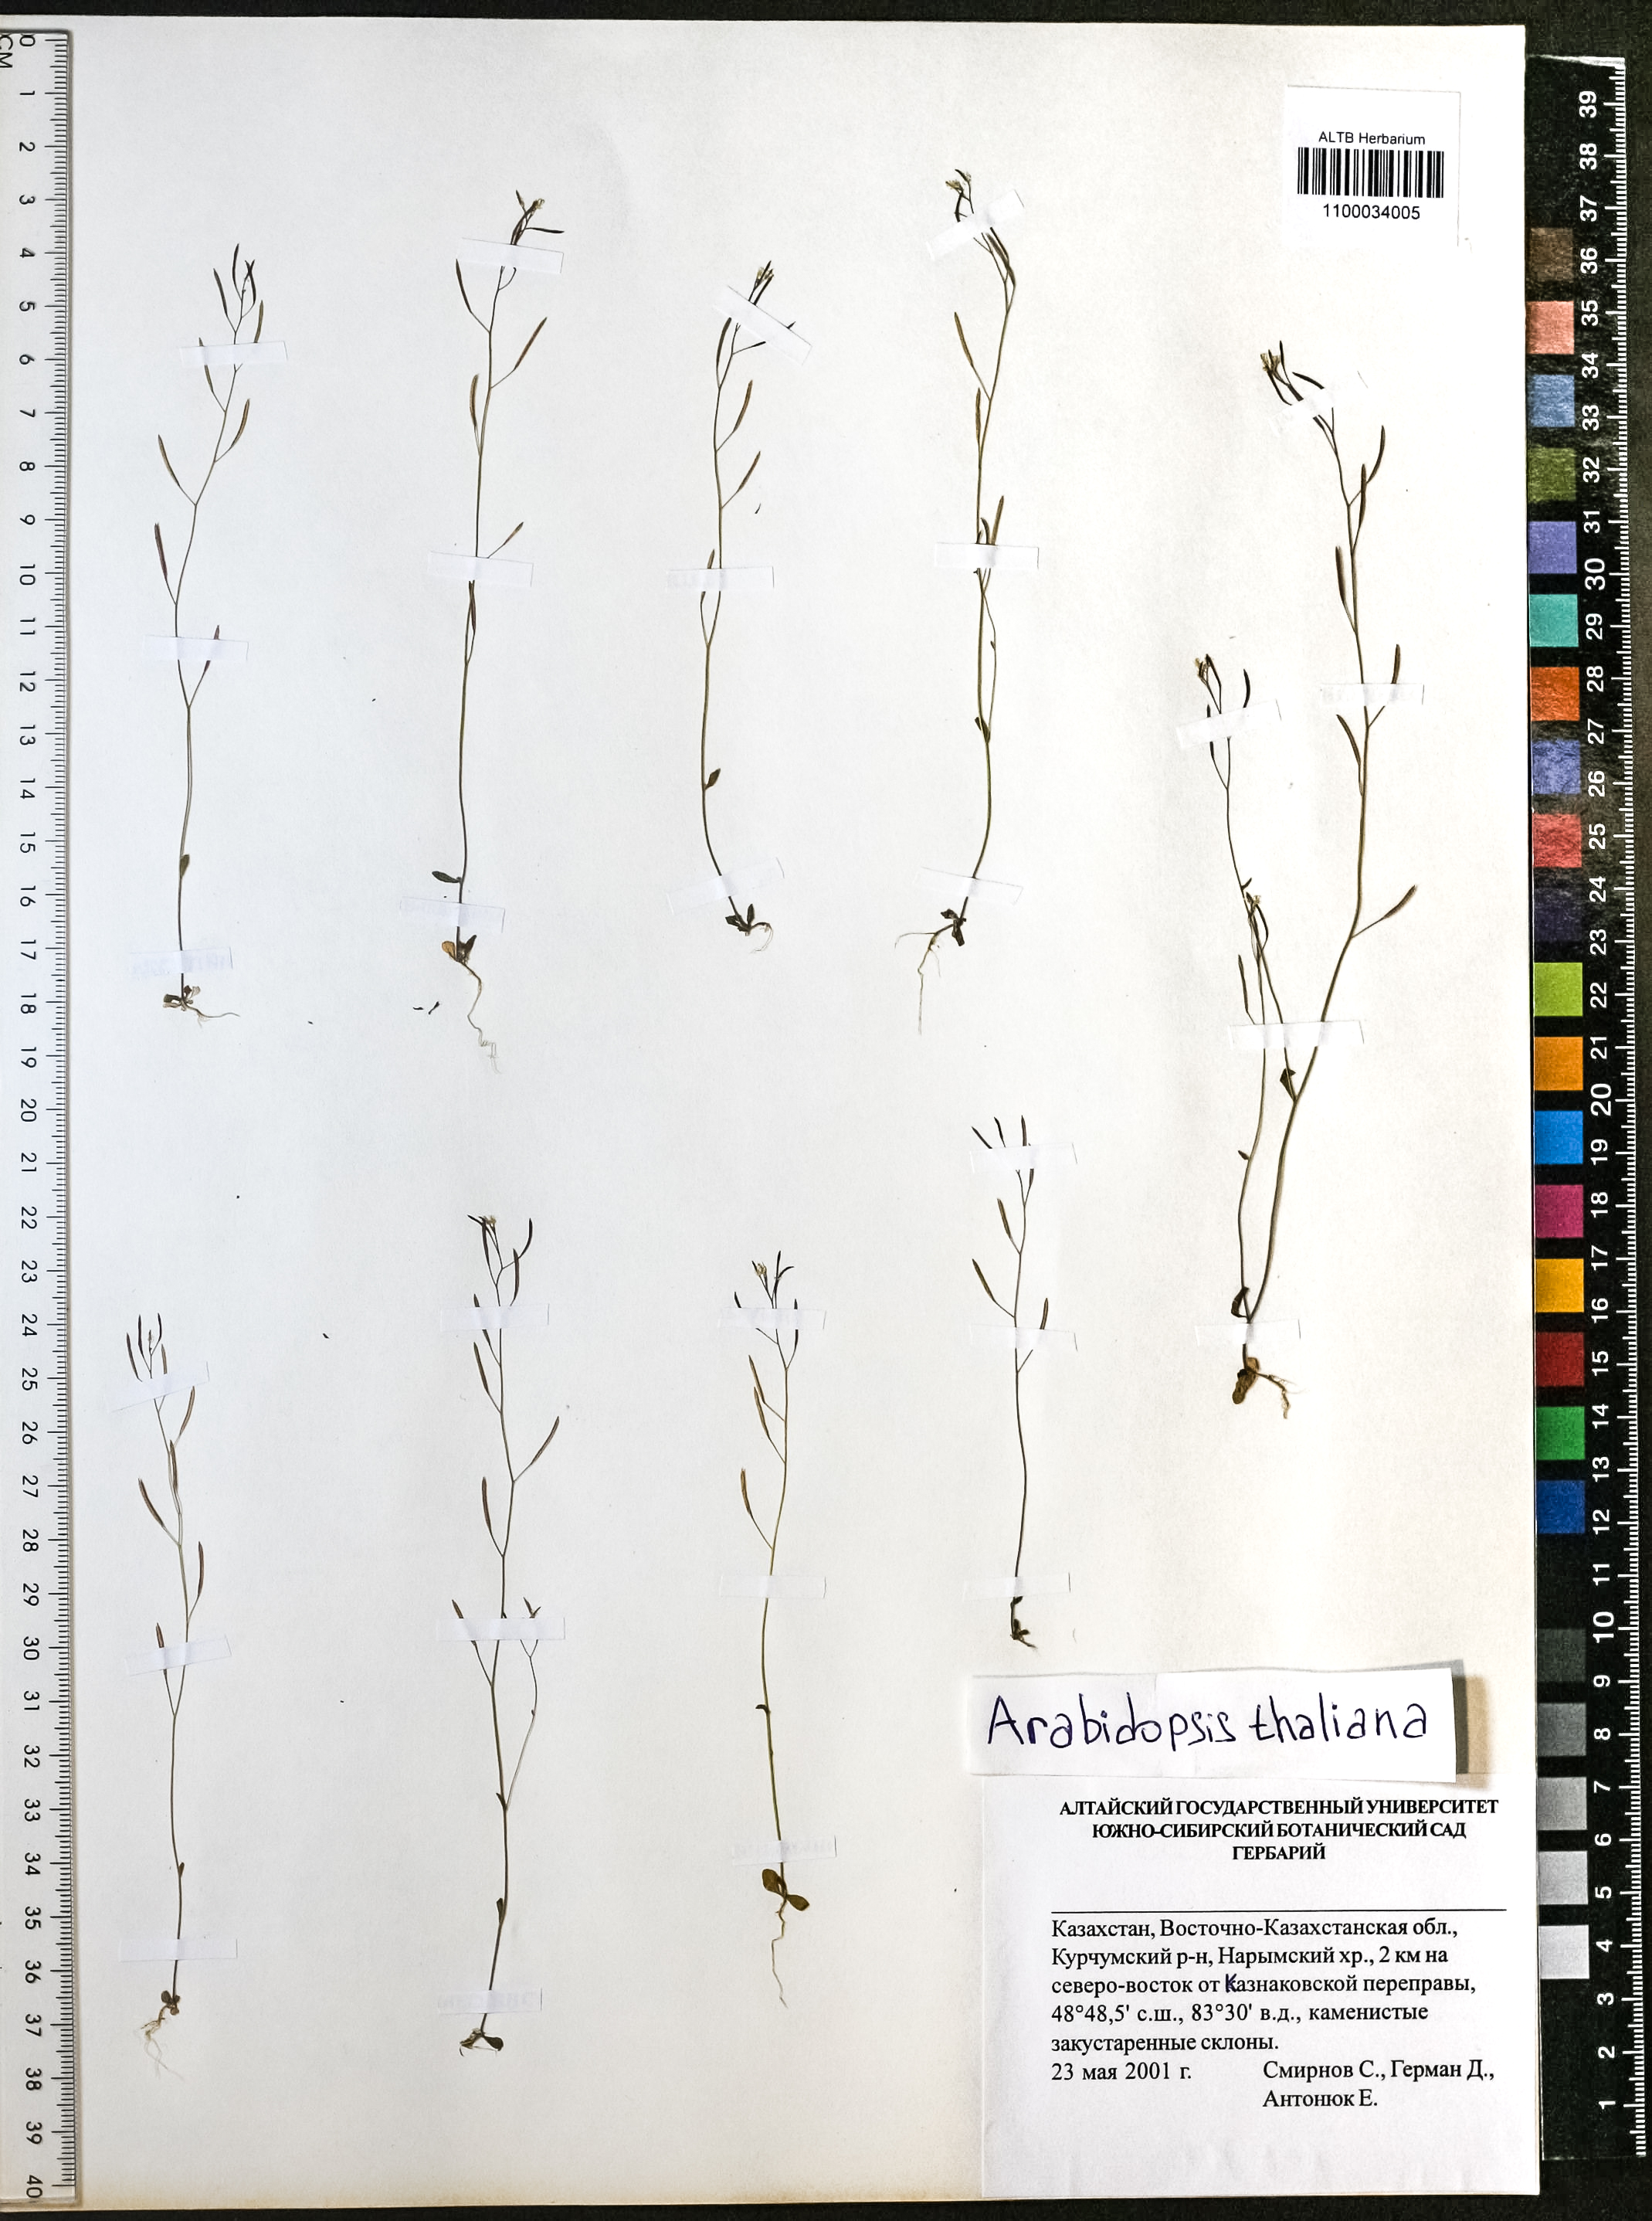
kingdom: Plantae
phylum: Tracheophyta
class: Magnoliopsida
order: Brassicales
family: Brassicaceae
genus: Arabidopsis
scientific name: Arabidopsis thaliana
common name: Thale cress
